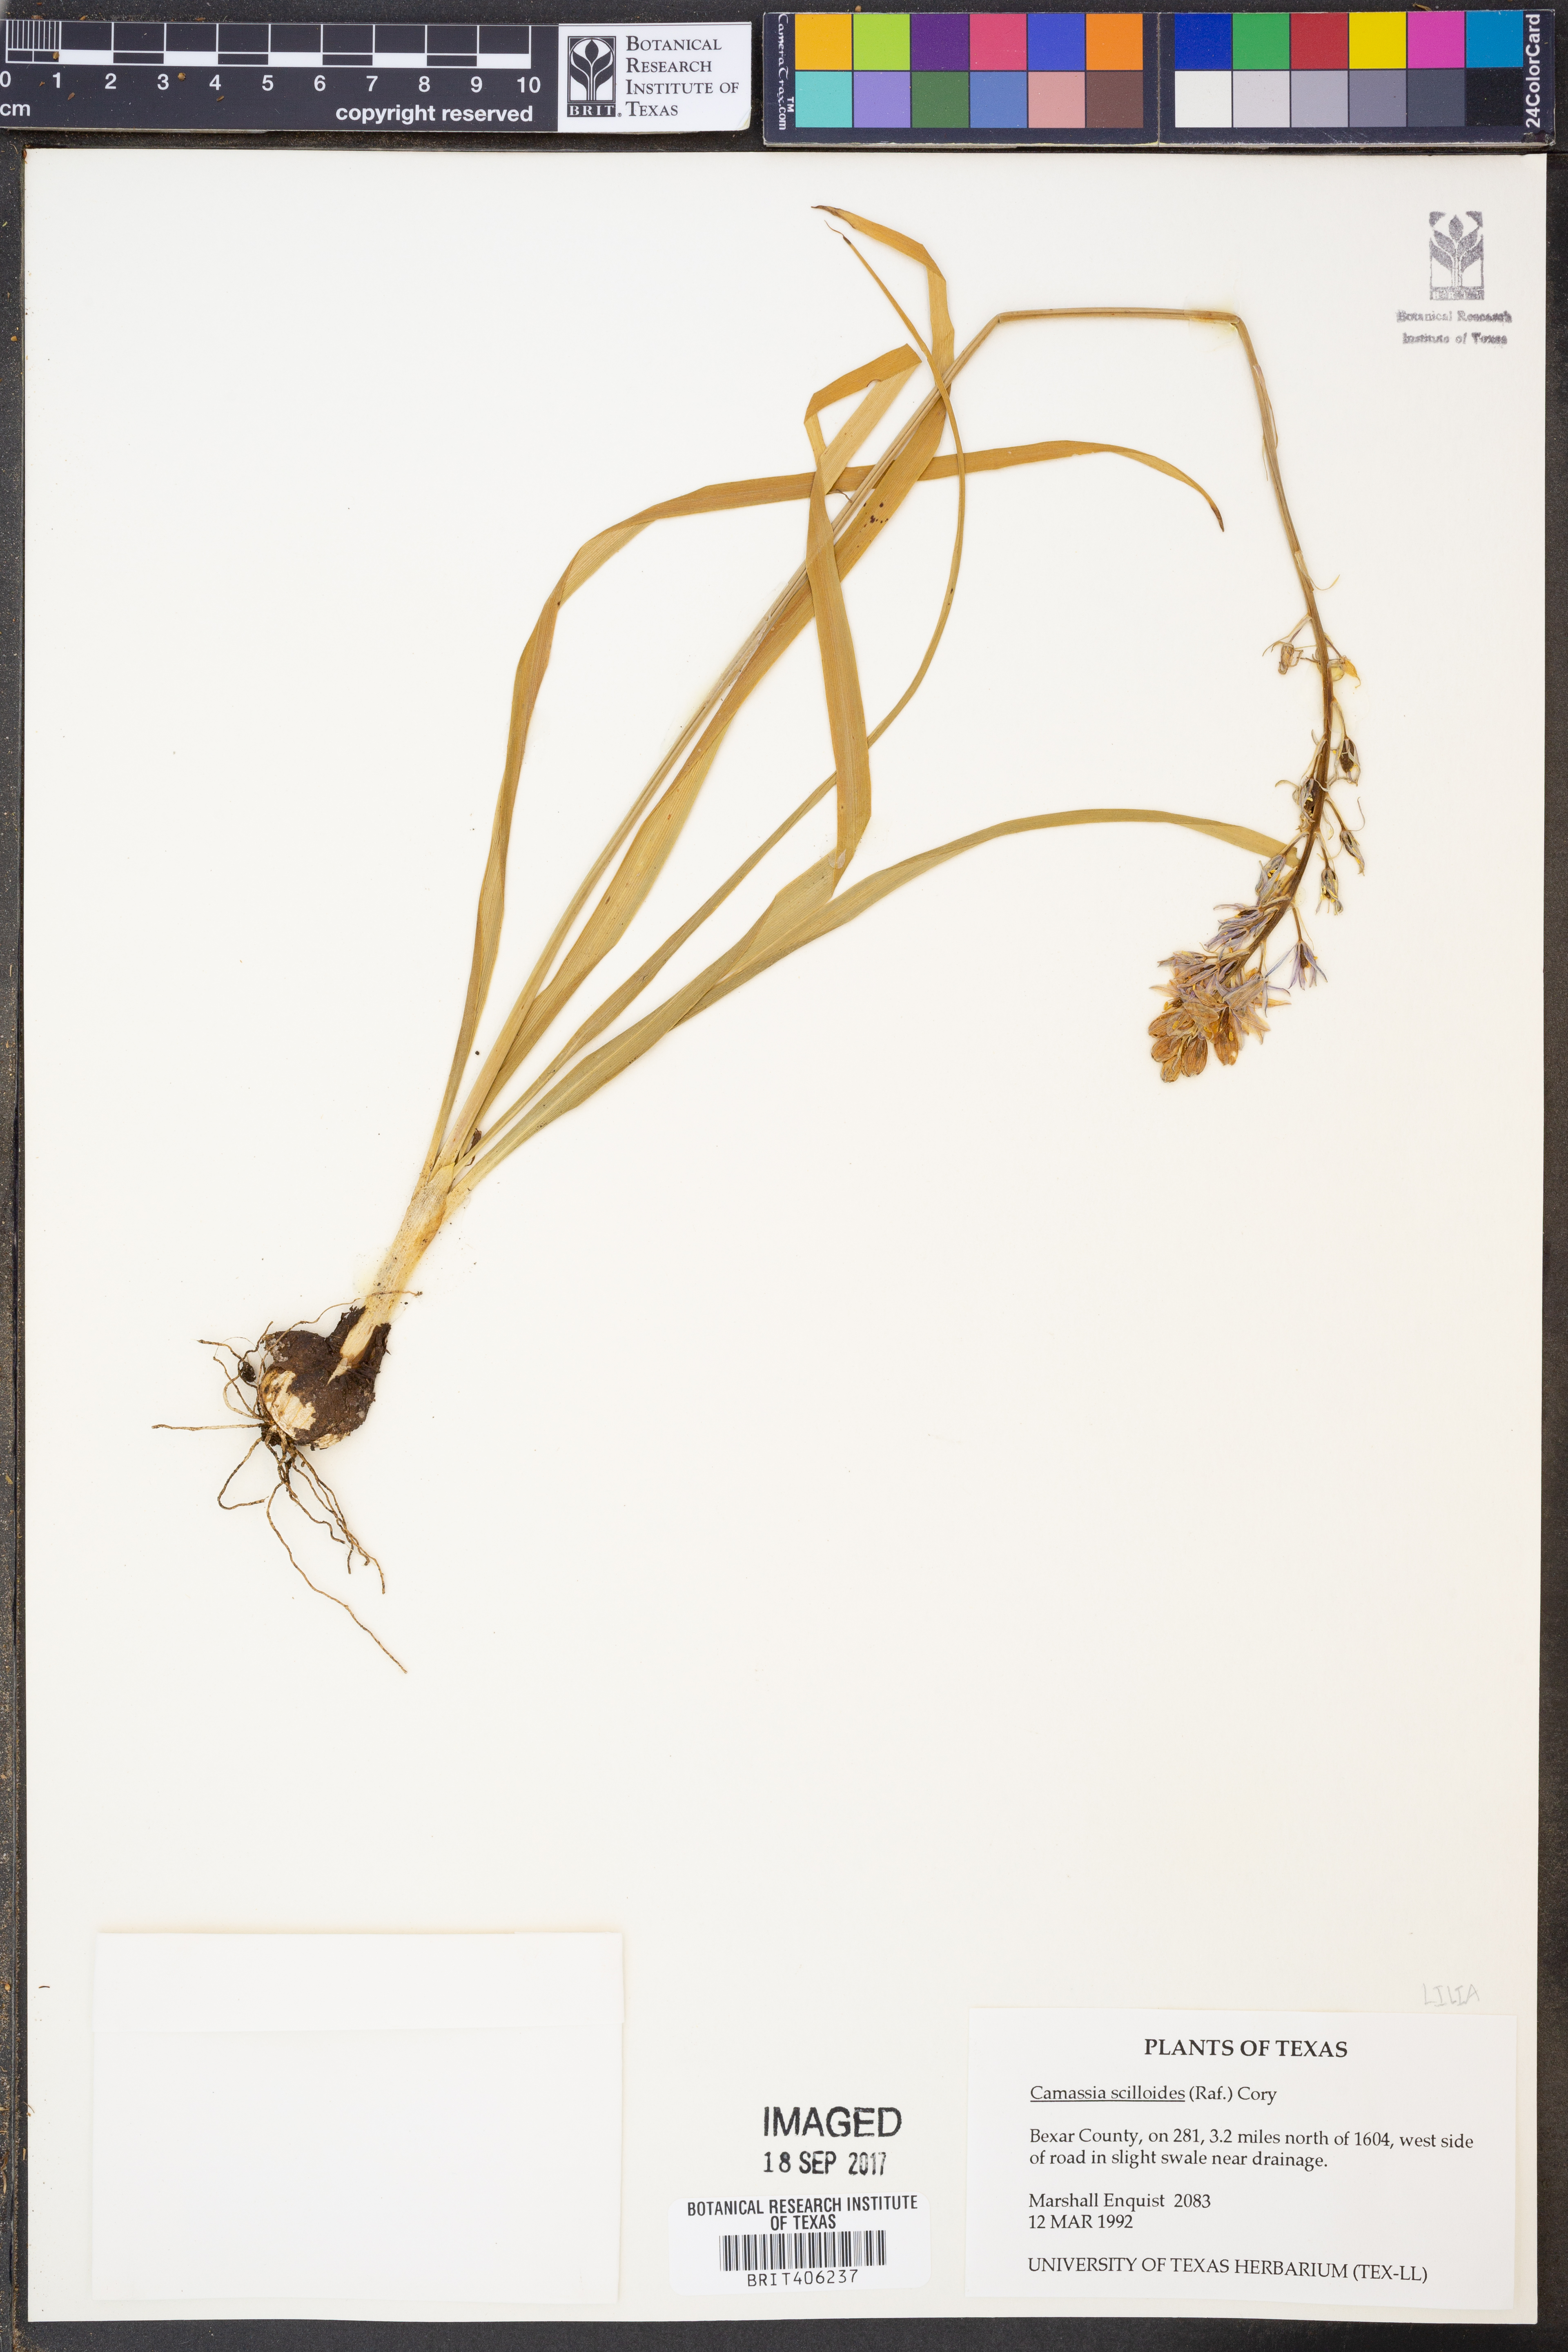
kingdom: Plantae
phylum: Tracheophyta
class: Liliopsida
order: Asparagales
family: Asparagaceae
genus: Camassia
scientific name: Camassia scilloides
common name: Wild hyacinth
